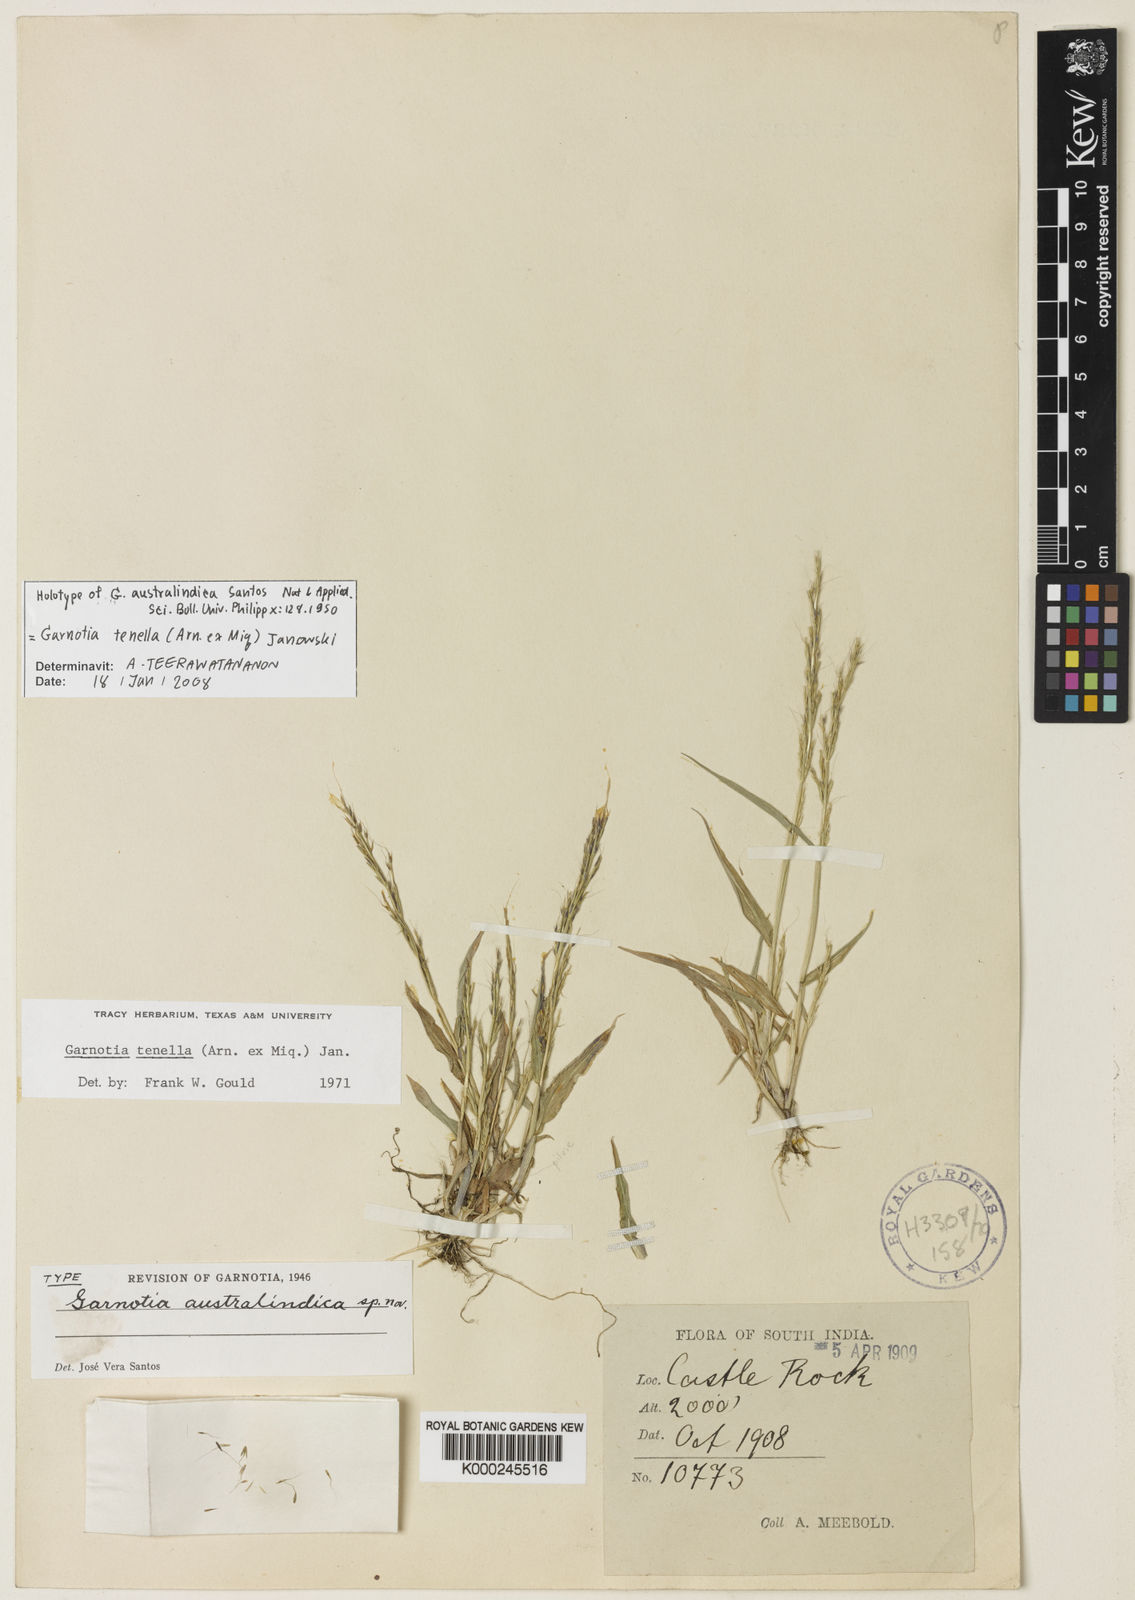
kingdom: Plantae
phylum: Tracheophyta
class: Liliopsida
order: Poales
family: Poaceae
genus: Garnotia
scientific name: Garnotia tenella
